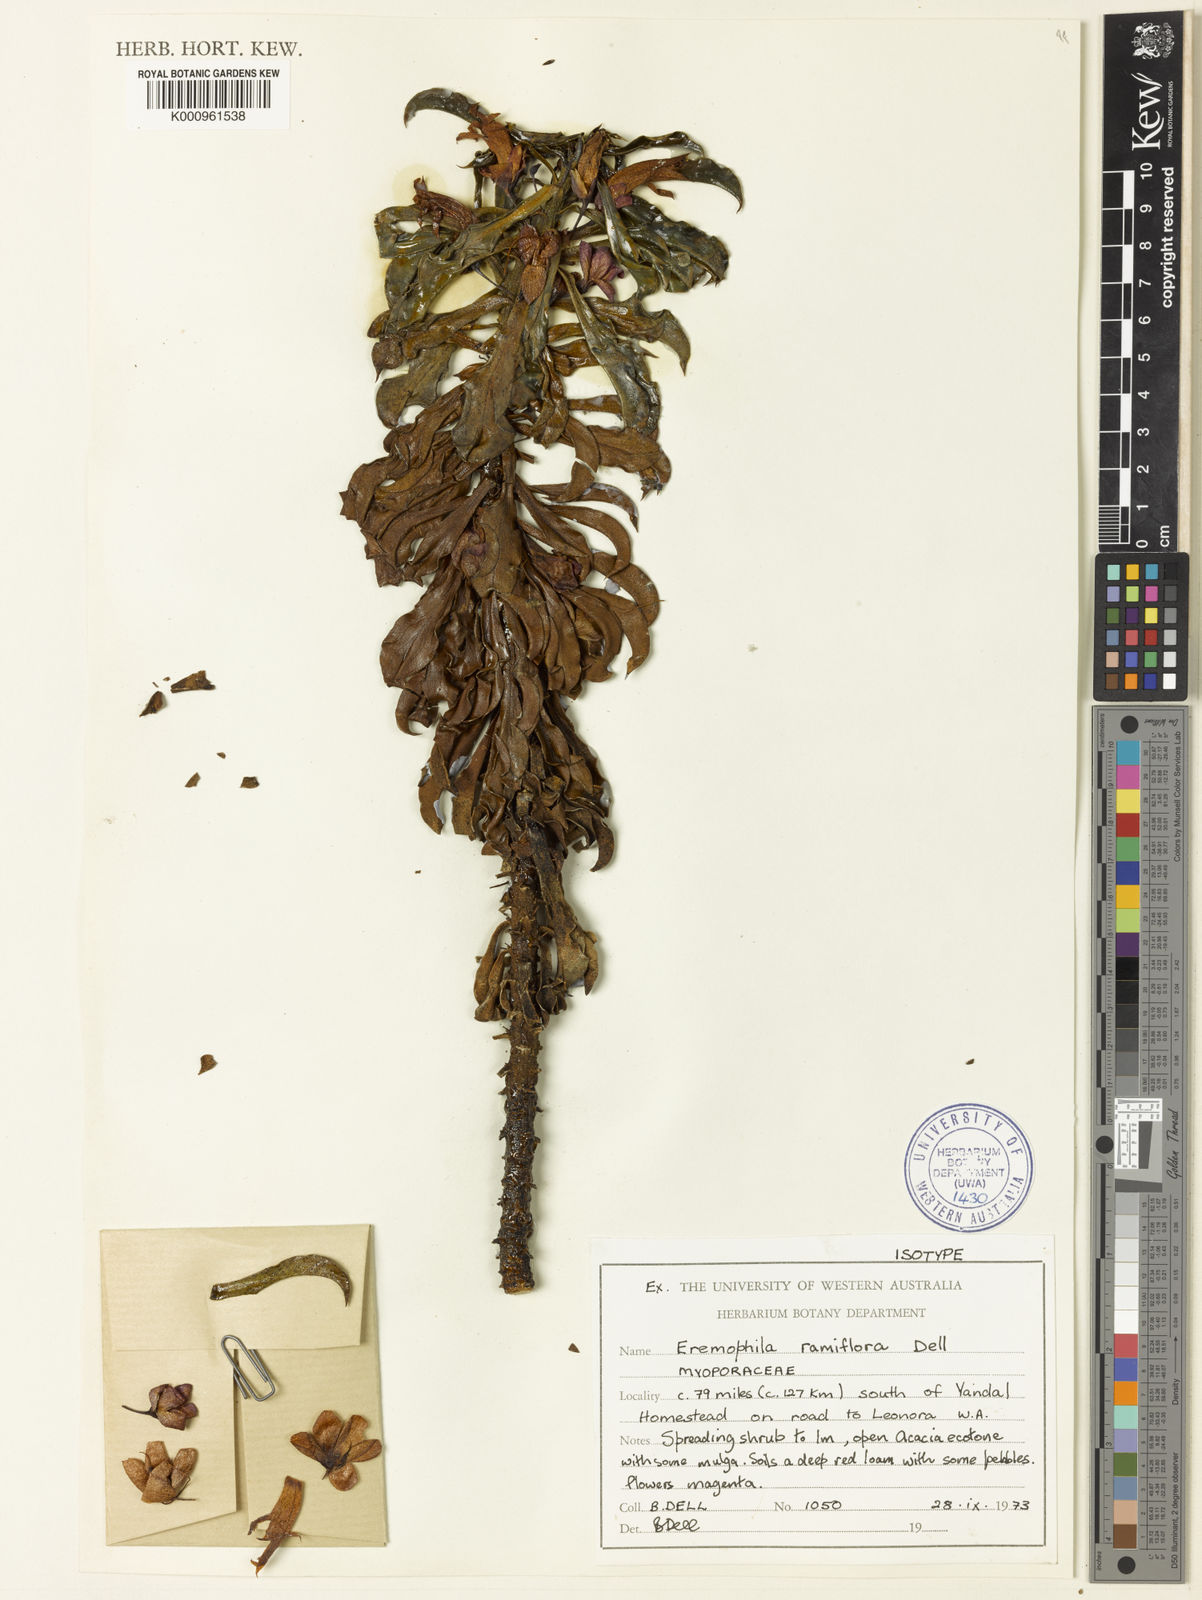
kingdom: Plantae
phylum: Tracheophyta
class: Magnoliopsida
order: Lamiales
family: Scrophulariaceae
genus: Eremophila
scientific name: Eremophila ramiflora
